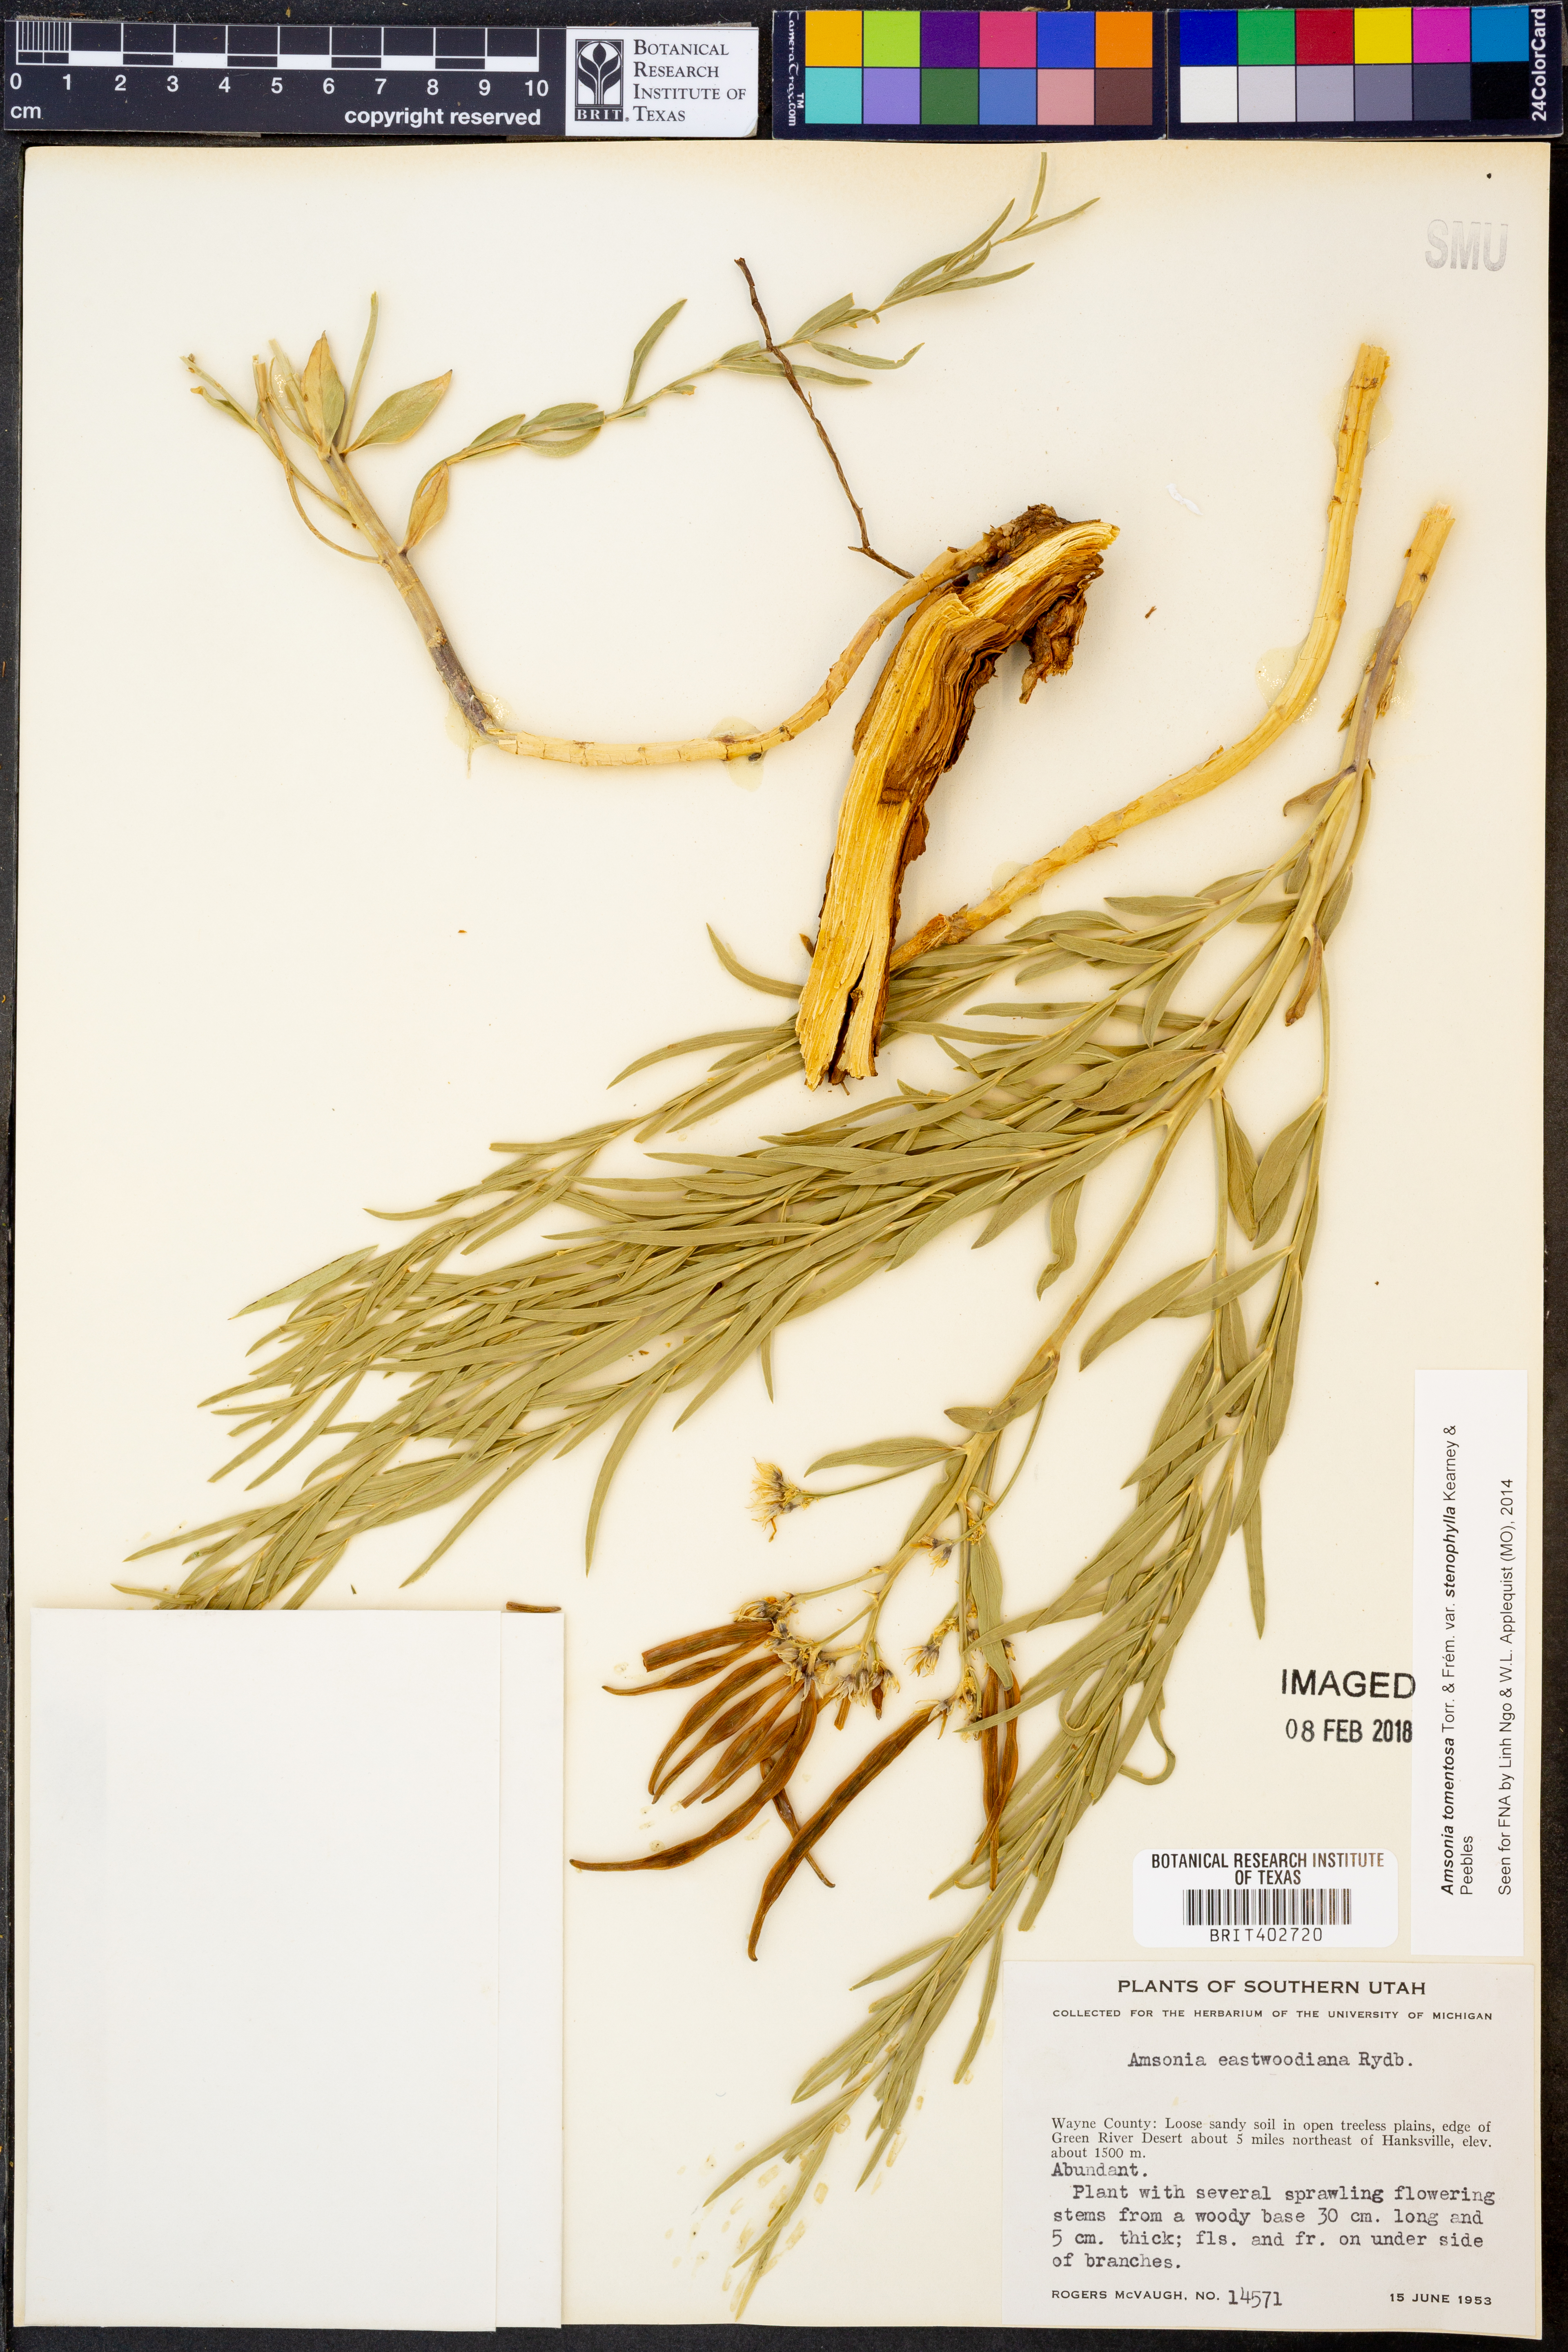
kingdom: Plantae
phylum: Tracheophyta
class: Magnoliopsida
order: Gentianales
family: Apocynaceae
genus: Amsonia
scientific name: Amsonia tomentosa
